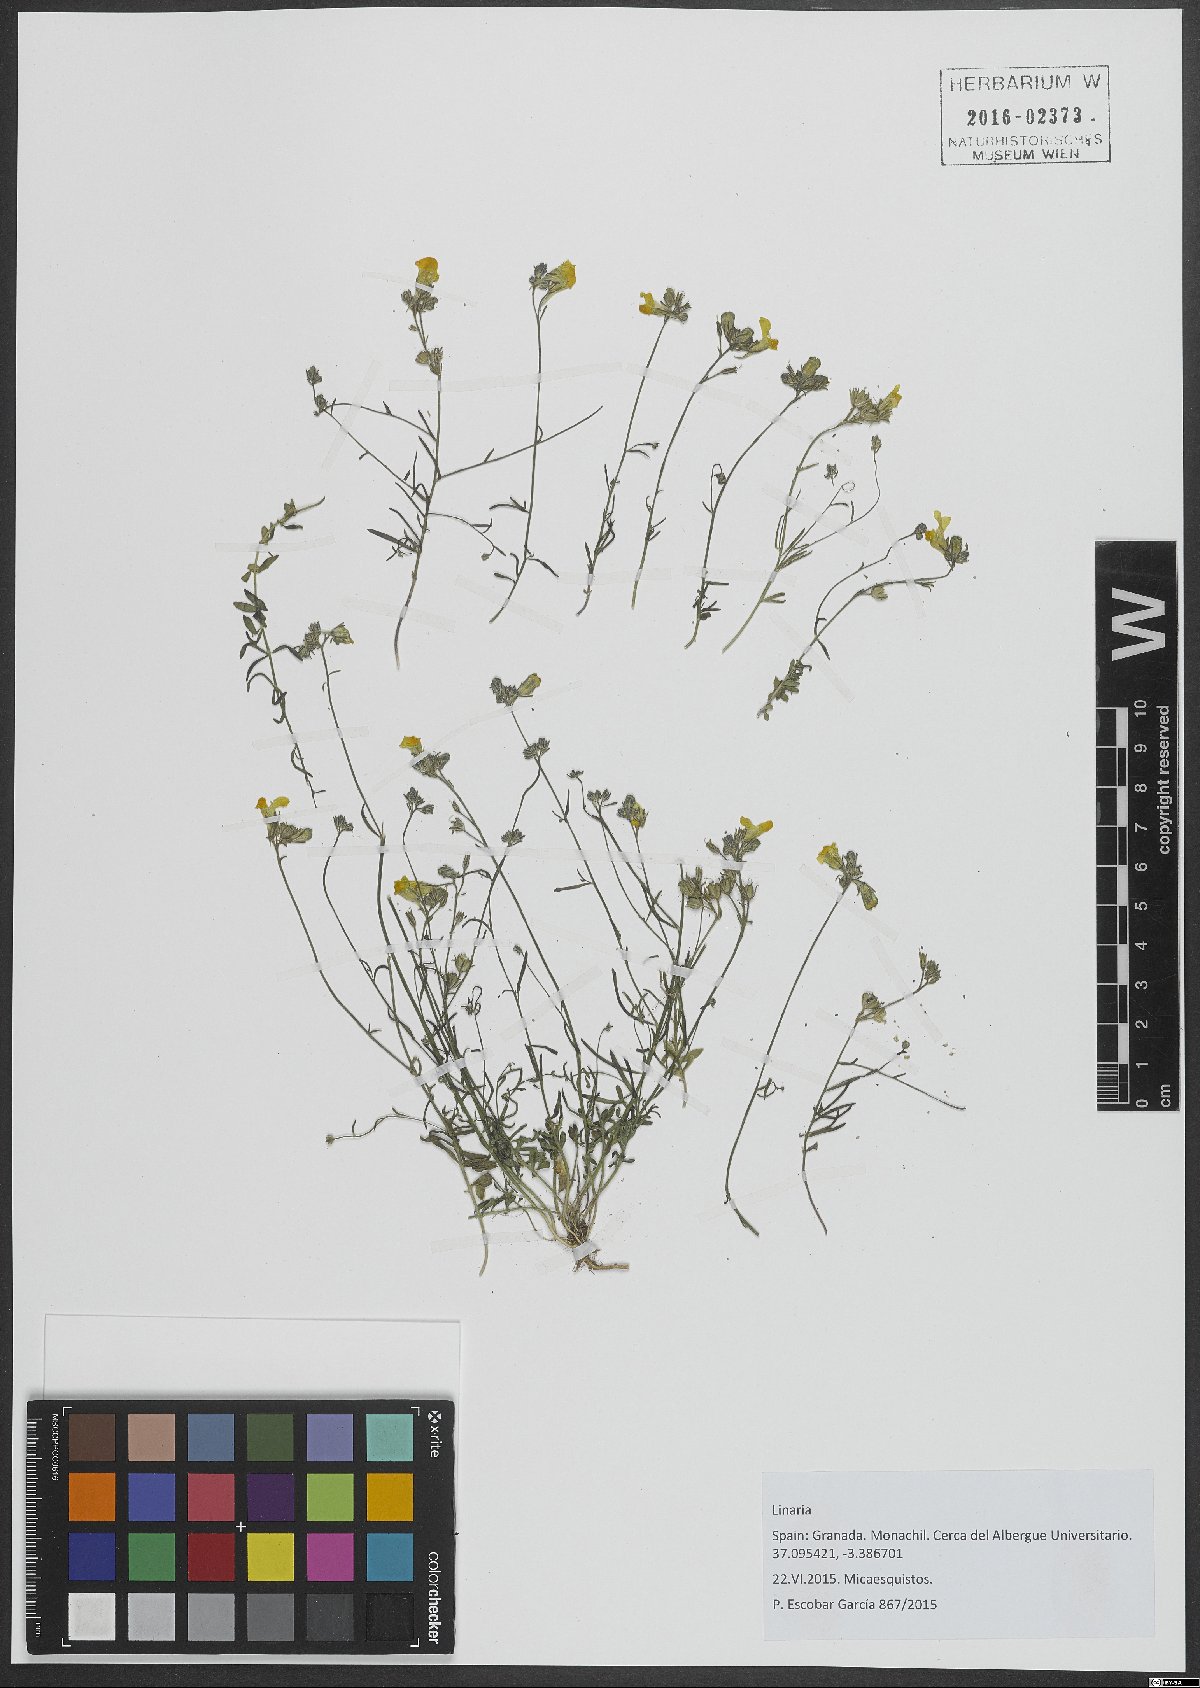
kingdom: Plantae
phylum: Tracheophyta
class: Magnoliopsida
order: Lamiales
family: Plantaginaceae
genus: Linaria
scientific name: Linaria
